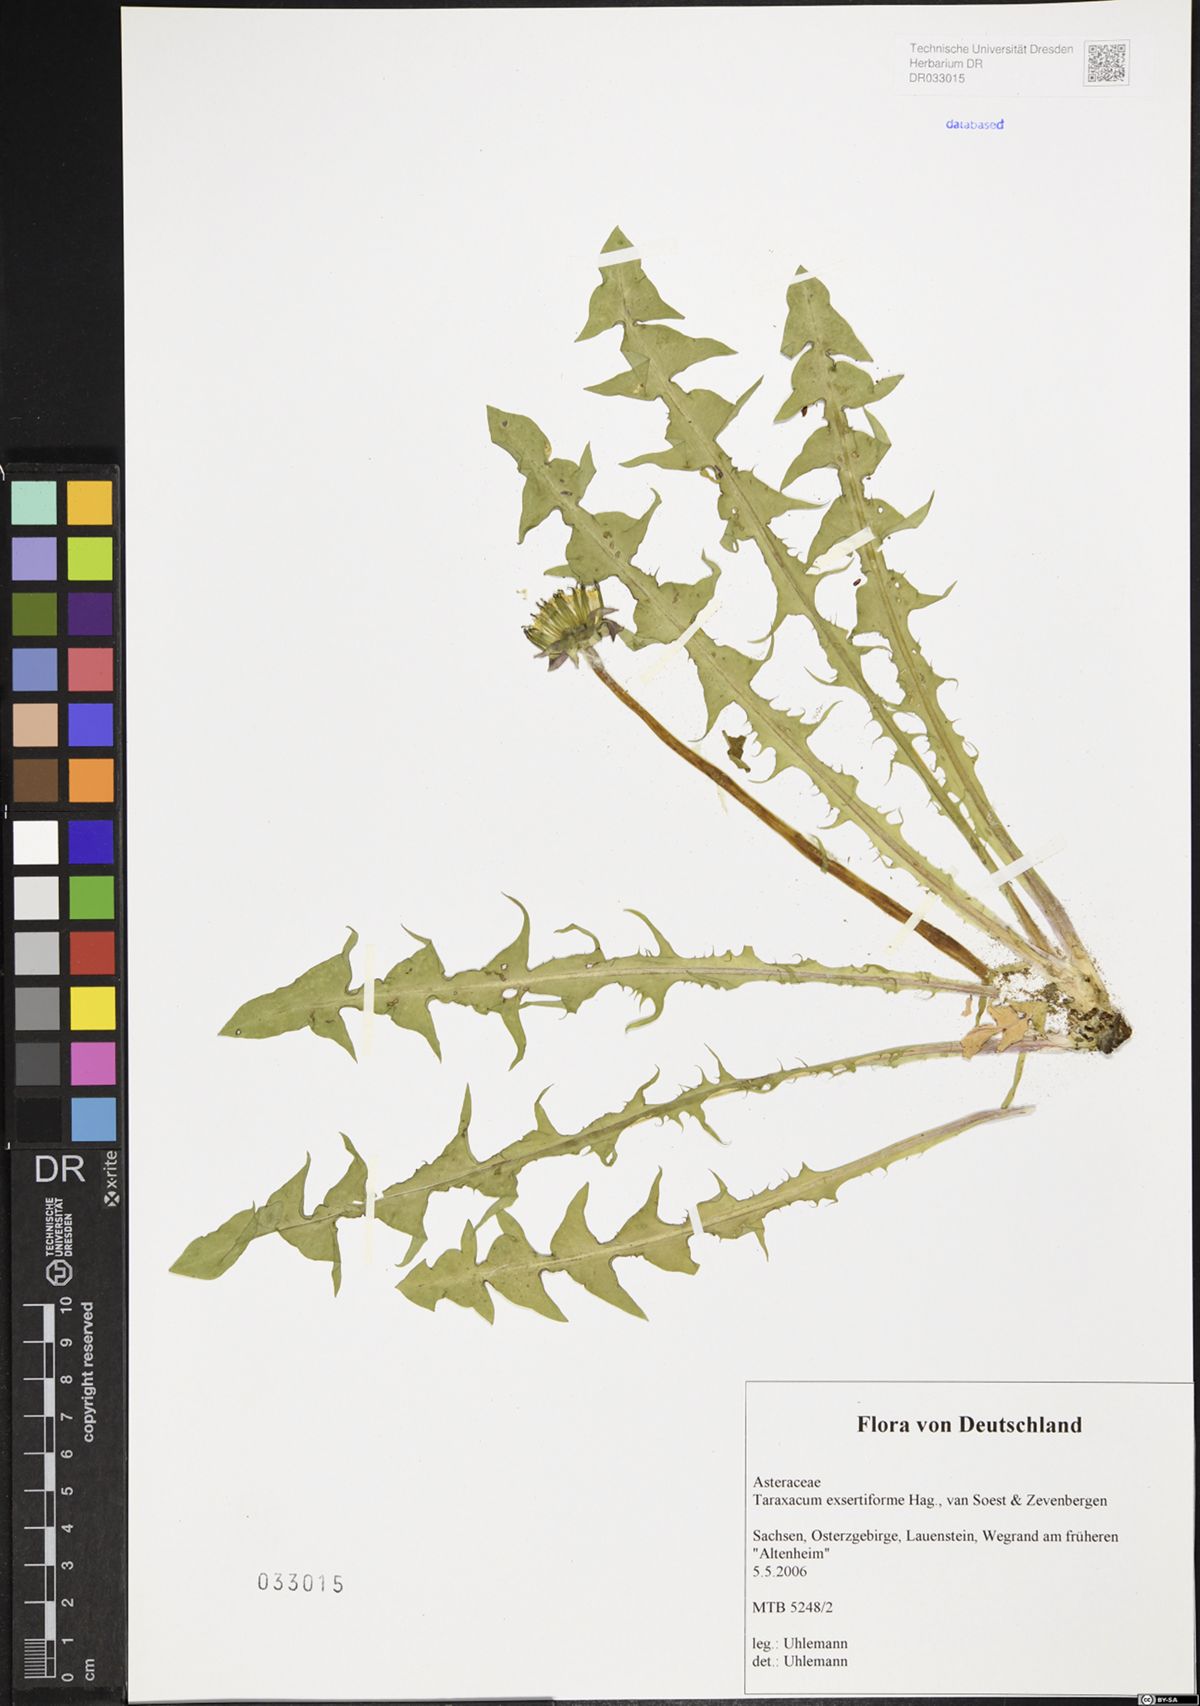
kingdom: Plantae
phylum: Tracheophyta
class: Magnoliopsida
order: Asterales
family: Asteraceae
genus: Taraxacum
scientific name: Taraxacum exsertiforme
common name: Erect-bracted dandelion
